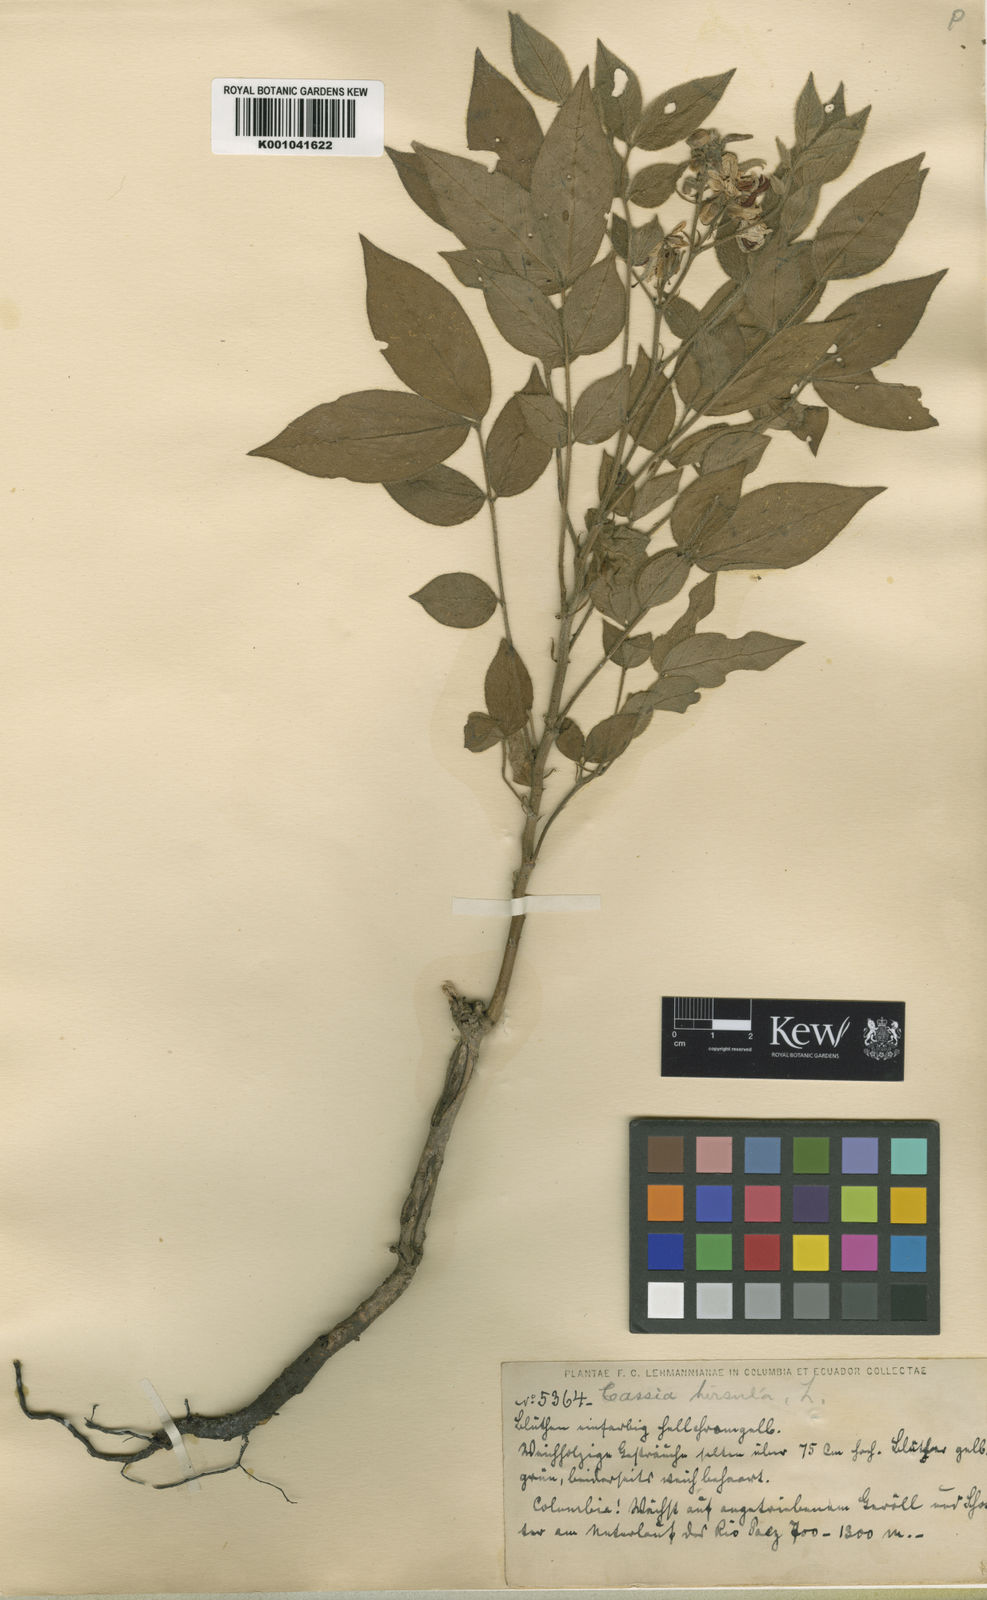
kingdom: Plantae
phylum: Tracheophyta
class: Magnoliopsida
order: Fabales
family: Fabaceae
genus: Senna
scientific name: Senna hirsuta
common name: Woolly senna
